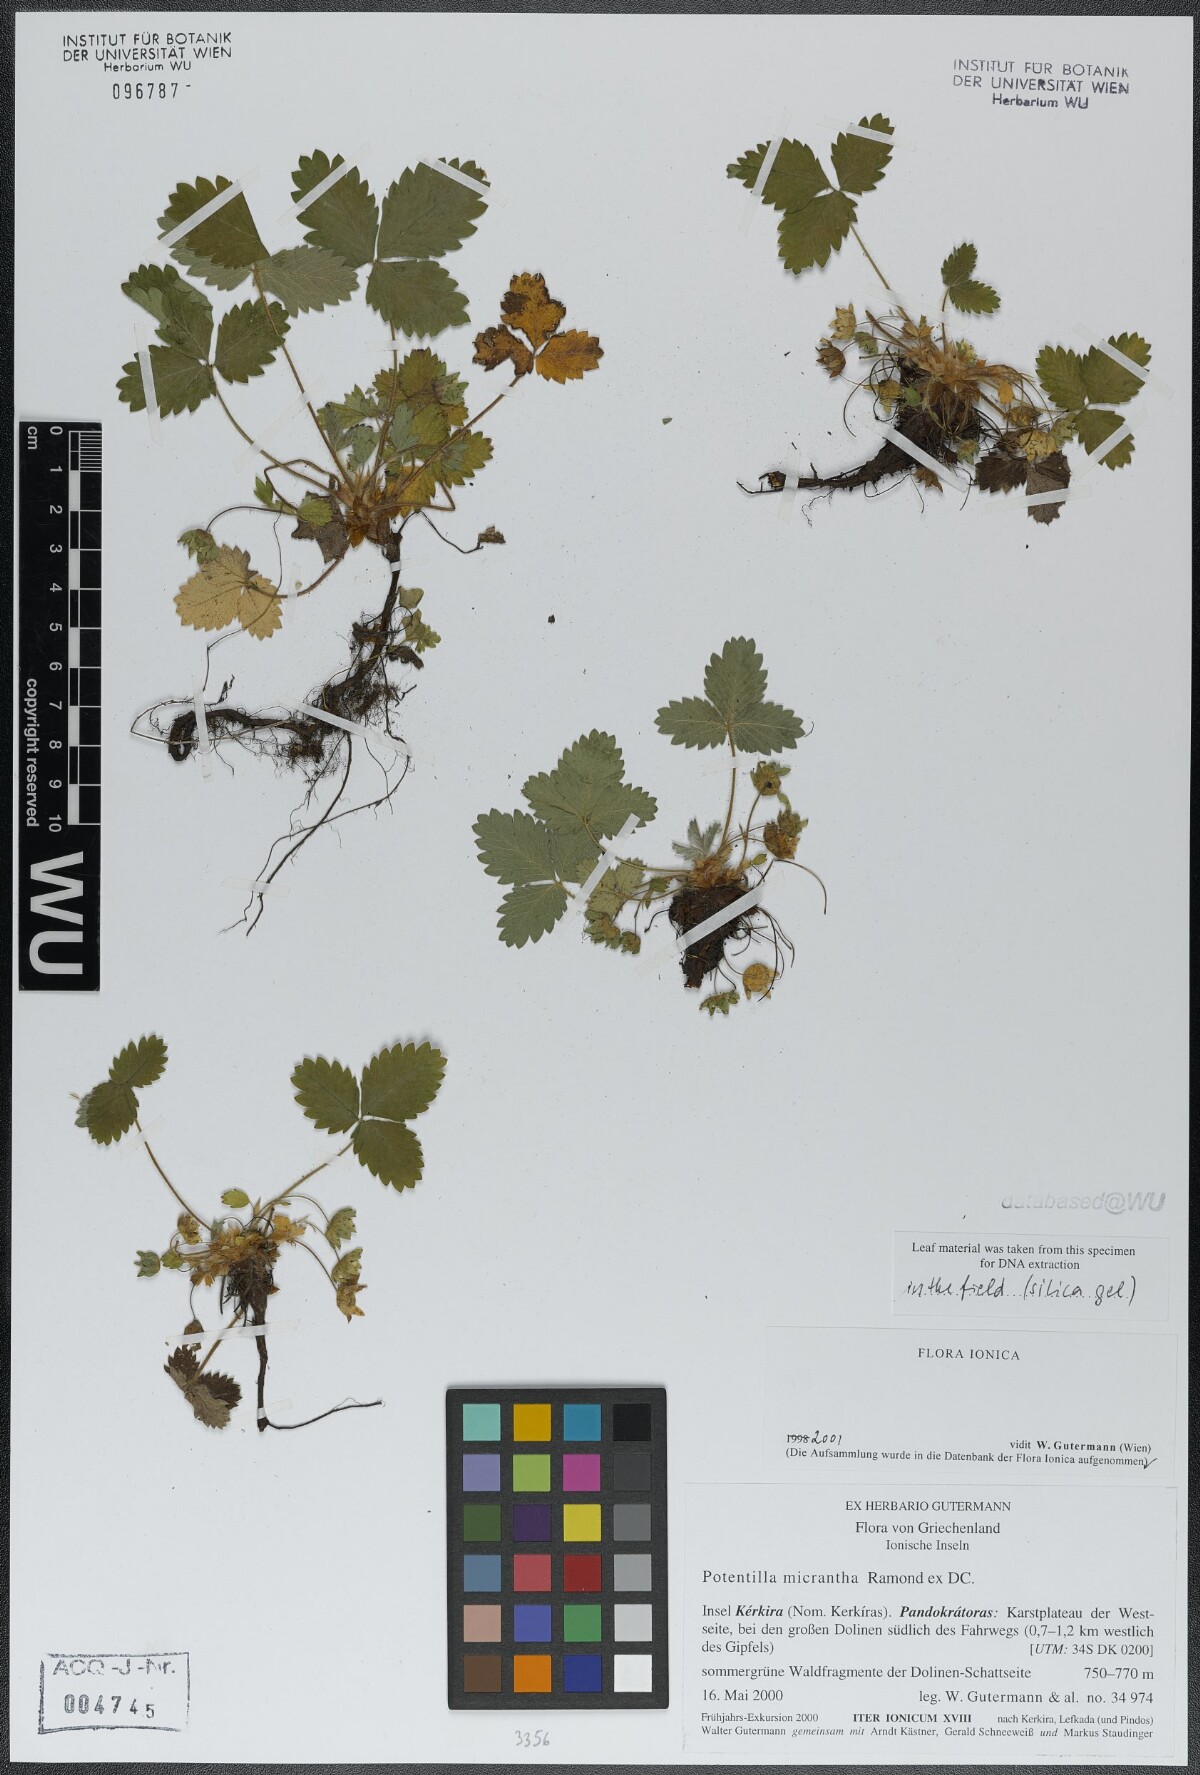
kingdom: Plantae
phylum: Tracheophyta
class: Magnoliopsida
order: Rosales
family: Rosaceae
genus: Potentilla
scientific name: Potentilla micrantha
